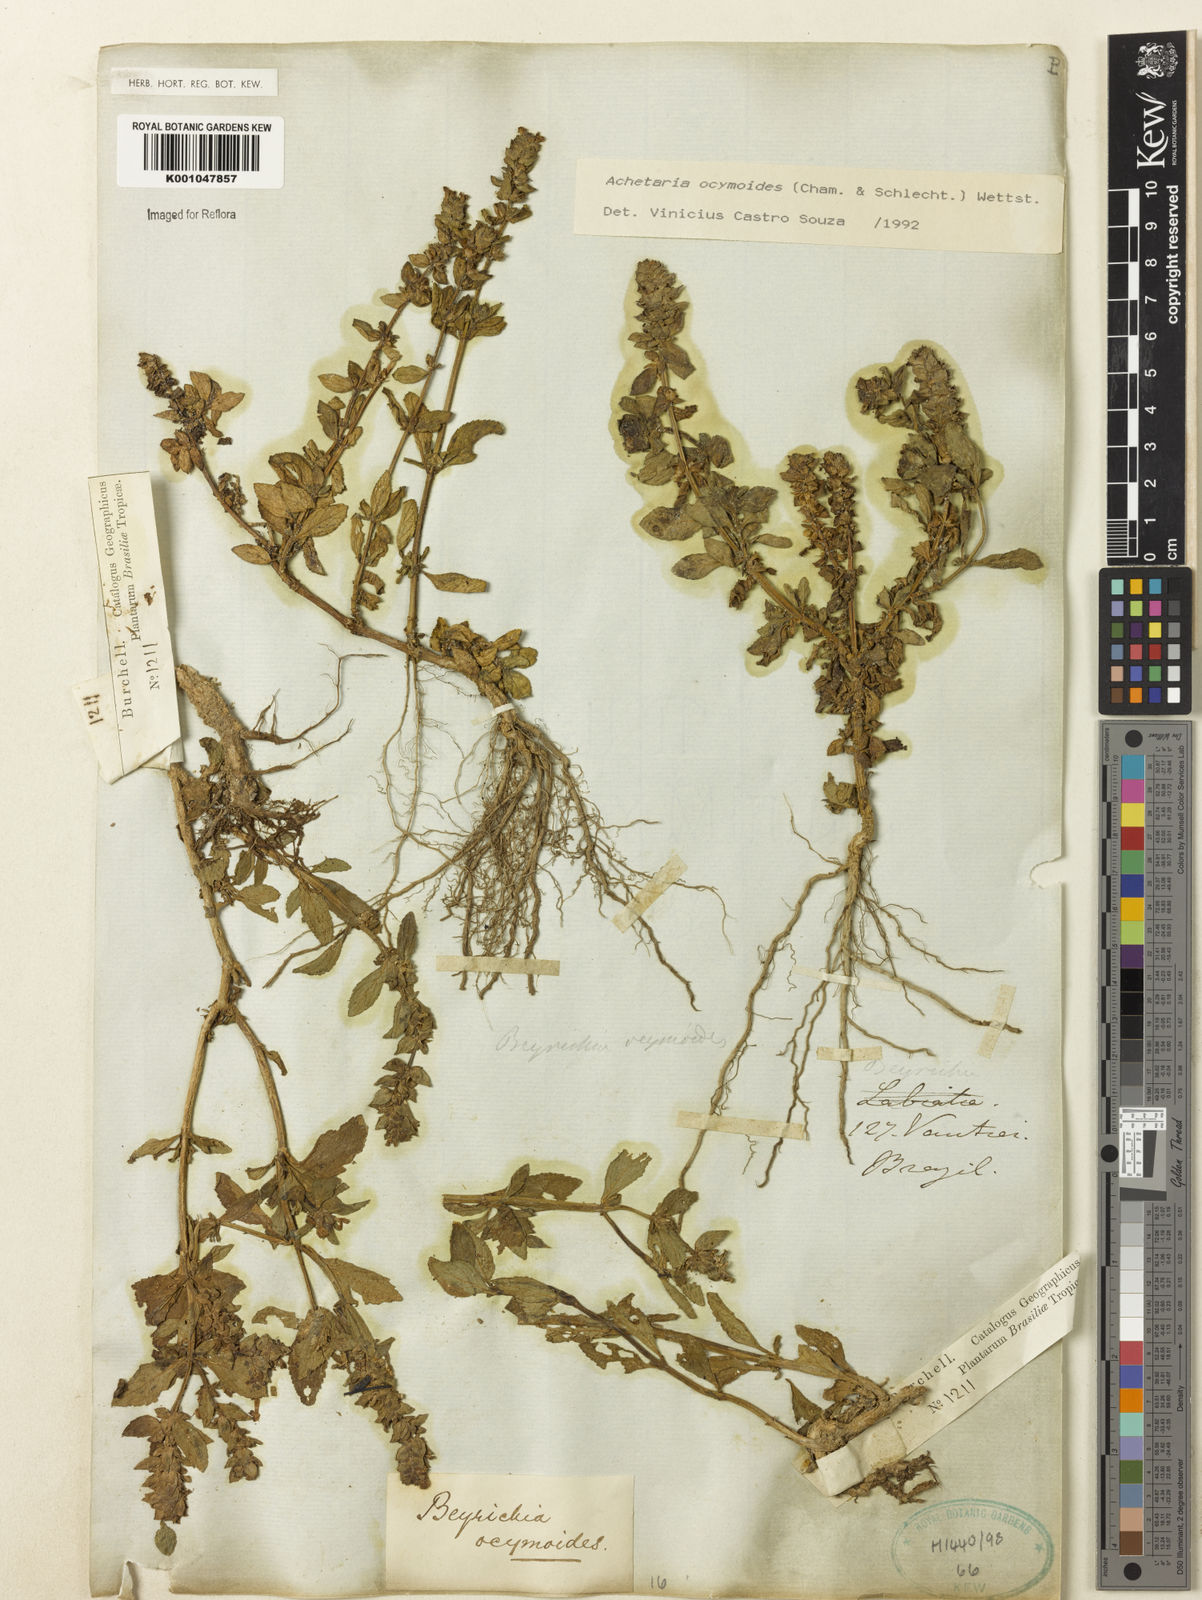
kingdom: Plantae
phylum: Tracheophyta
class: Magnoliopsida
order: Lamiales
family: Plantaginaceae
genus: Matourea
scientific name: Matourea ocymoides
